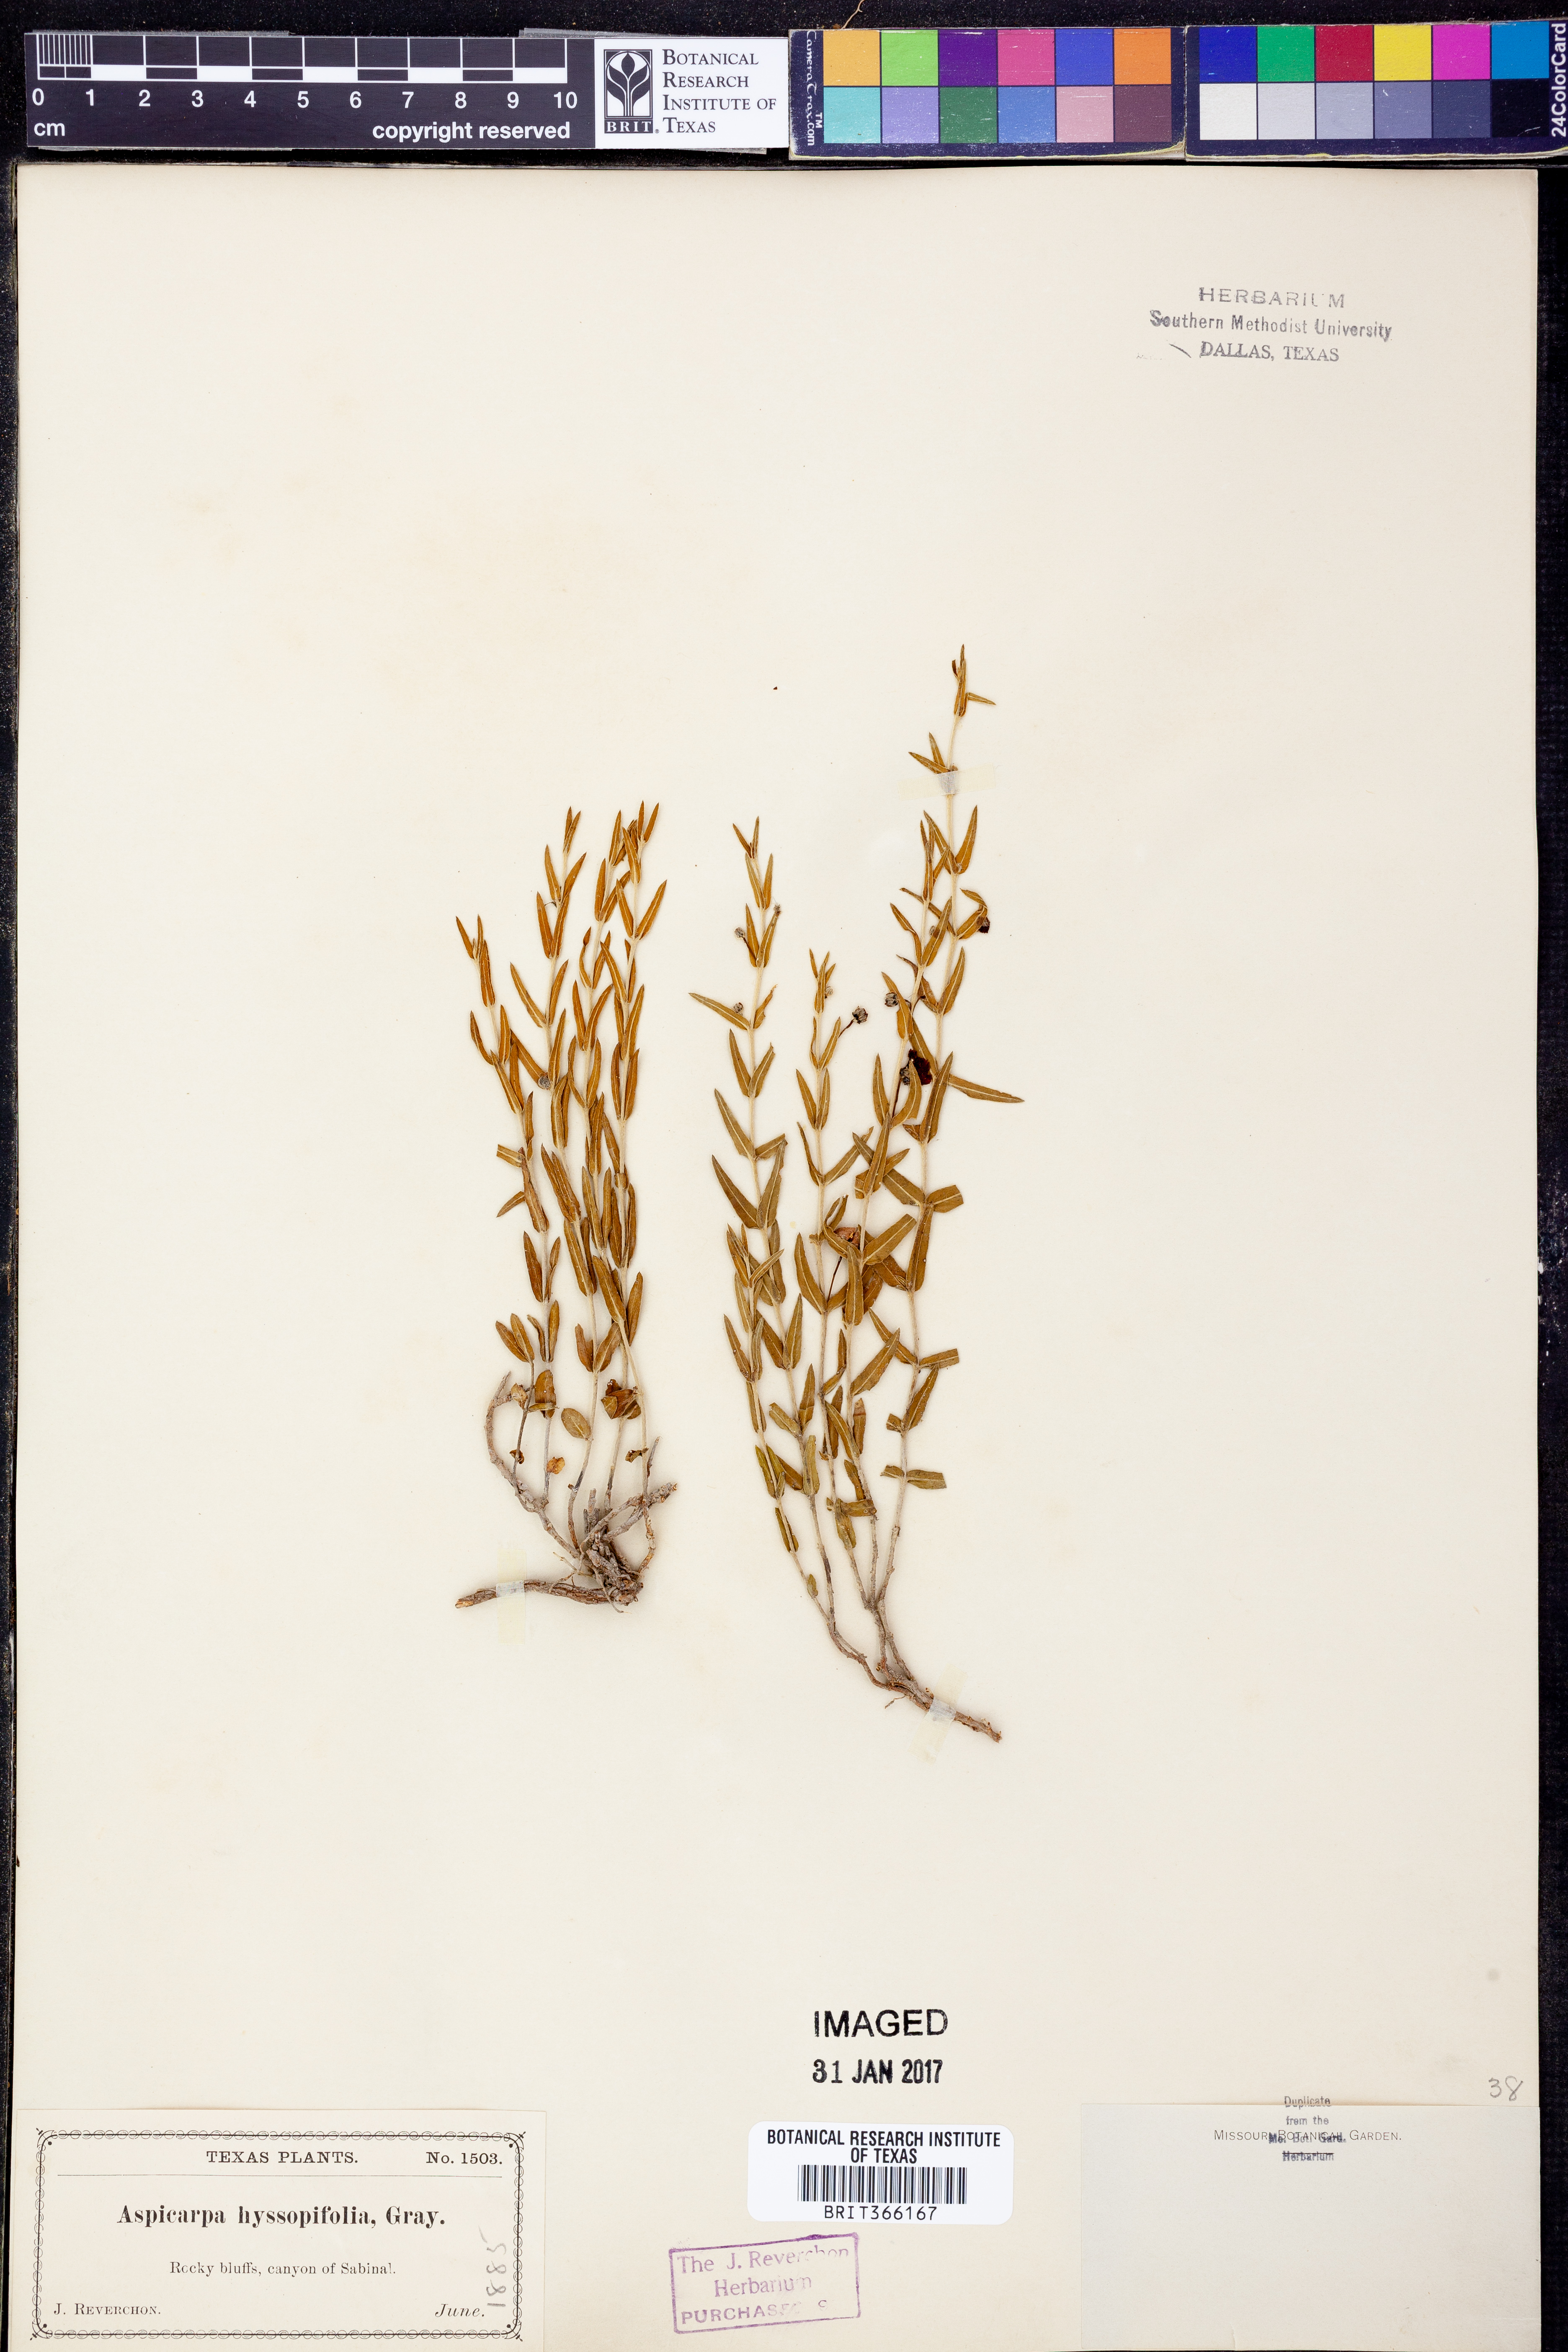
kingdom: Plantae
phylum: Tracheophyta
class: Magnoliopsida
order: Malpighiales
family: Malpighiaceae
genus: Aspicarpa
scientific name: Aspicarpa hyssopifolia
